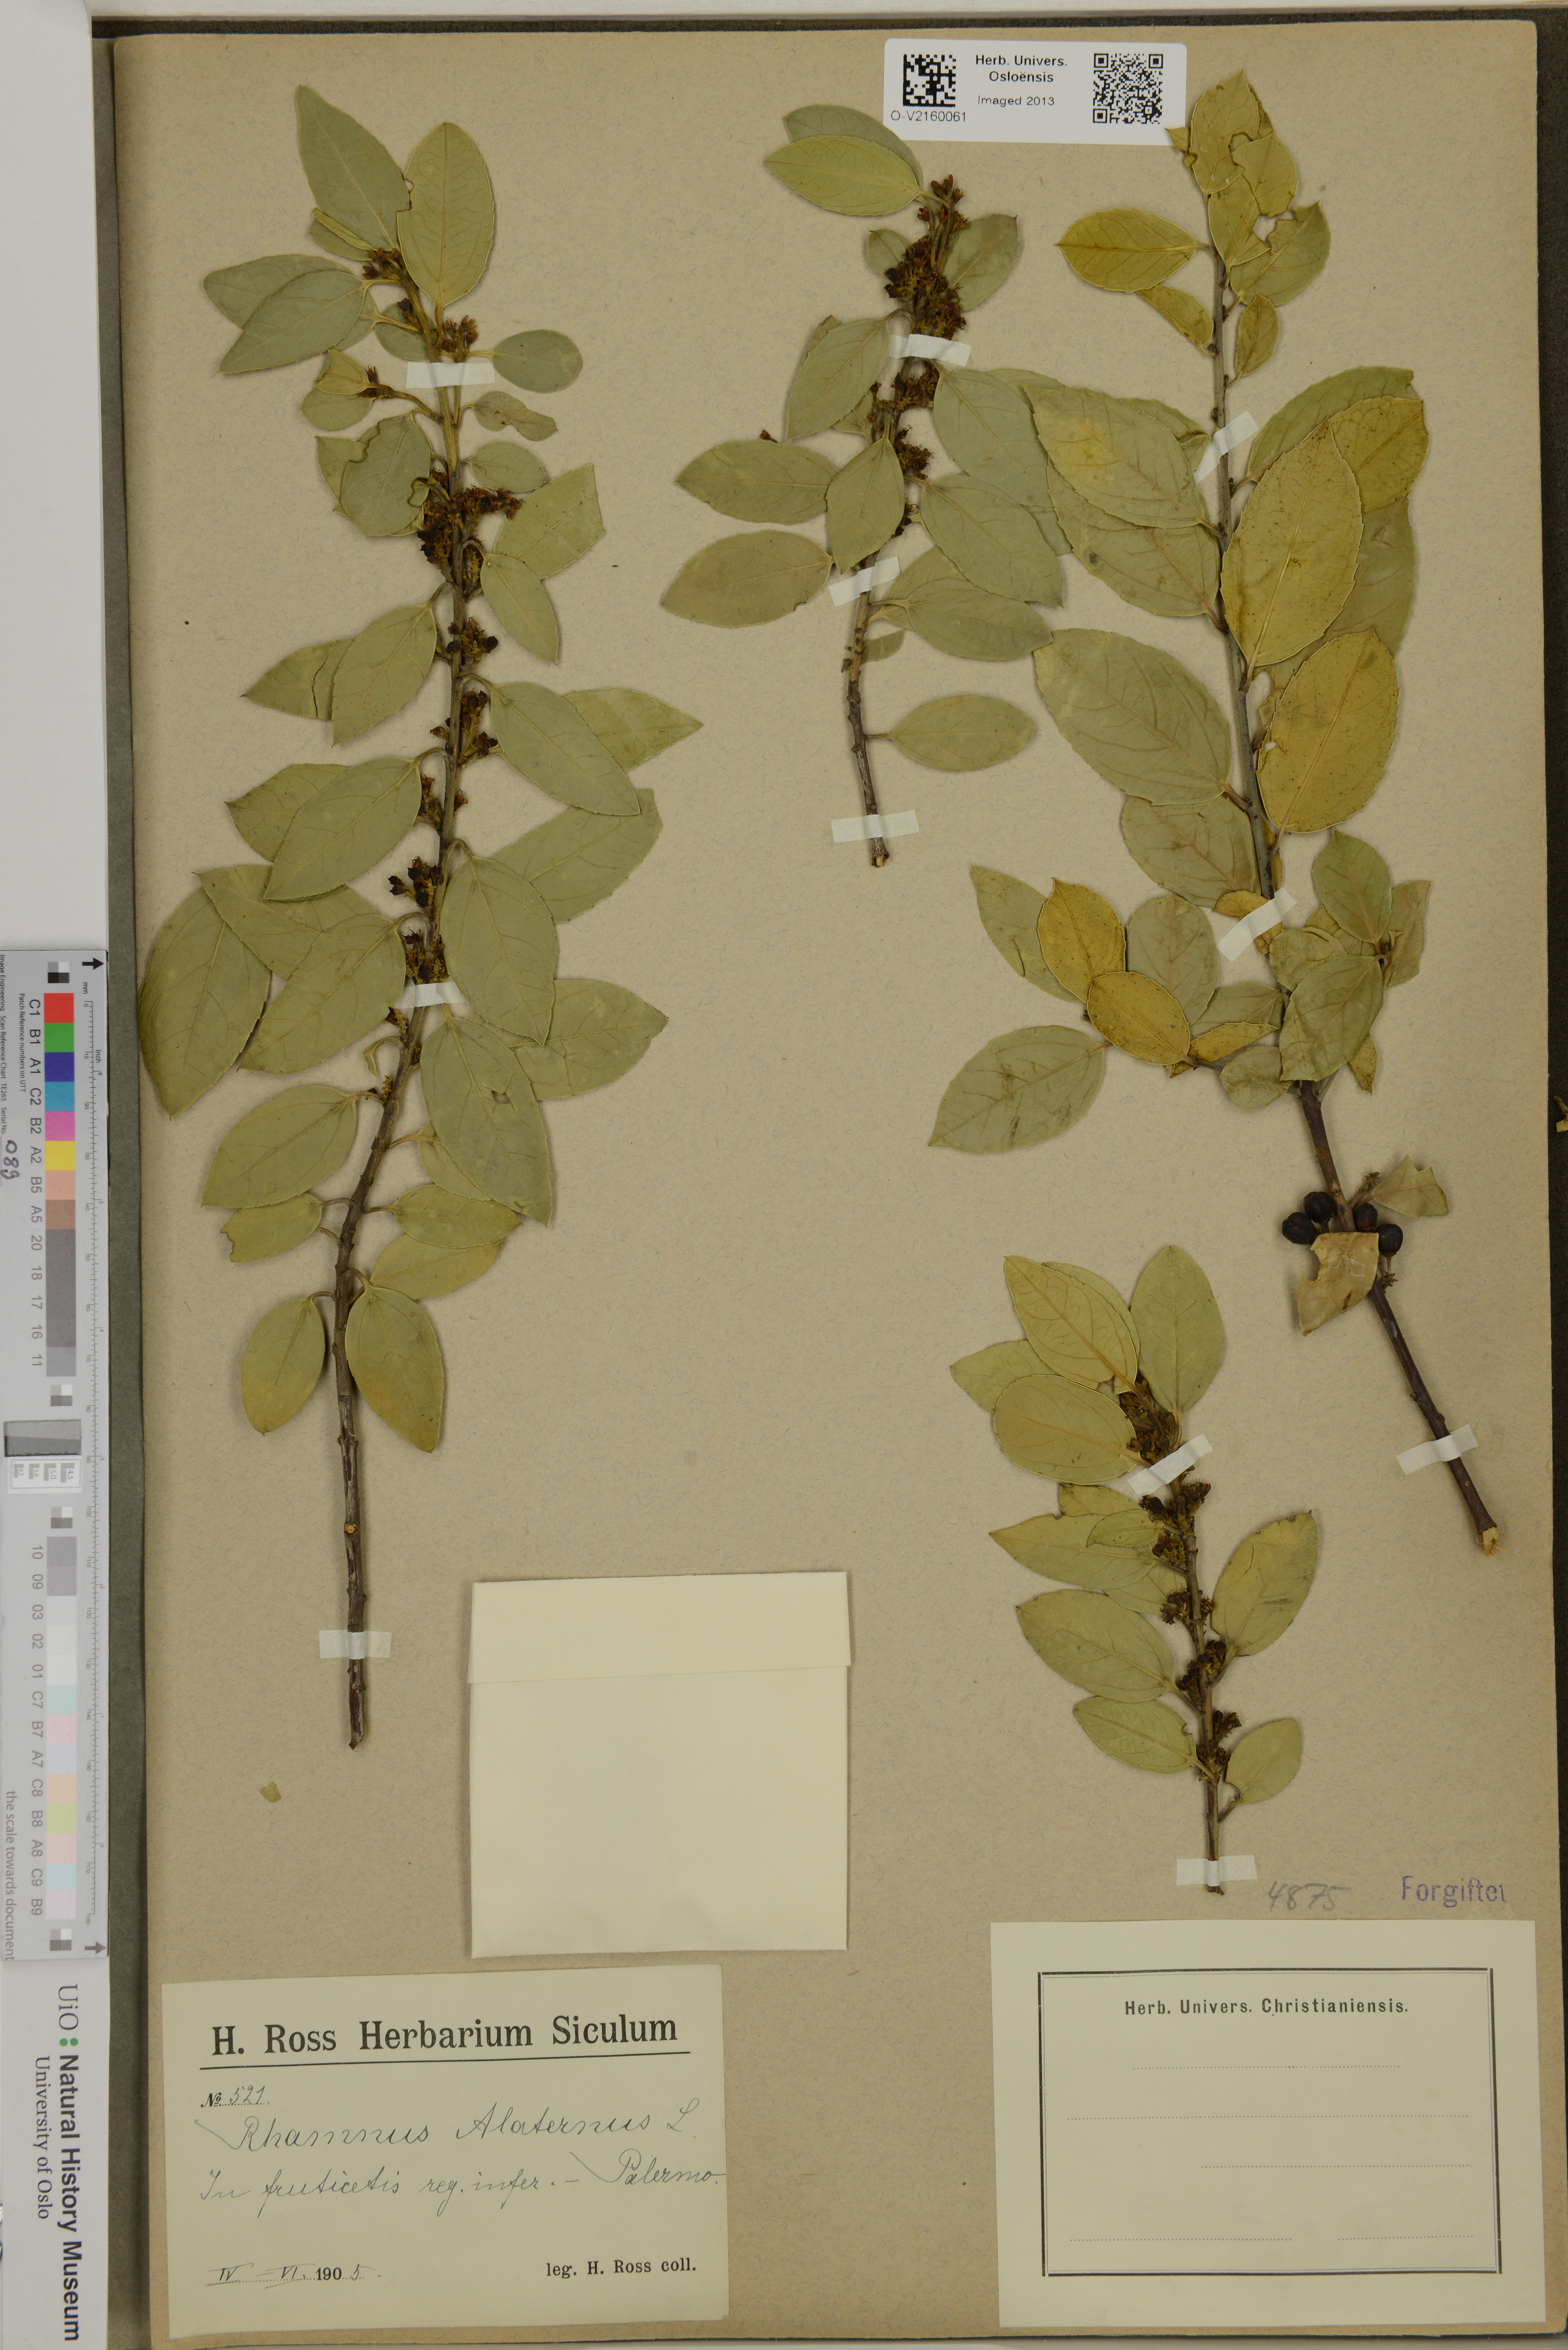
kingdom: Plantae
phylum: Tracheophyta
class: Magnoliopsida
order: Rosales
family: Rhamnaceae
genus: Rhamnus
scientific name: Rhamnus alaternus
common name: Mediterranean buckthorn
